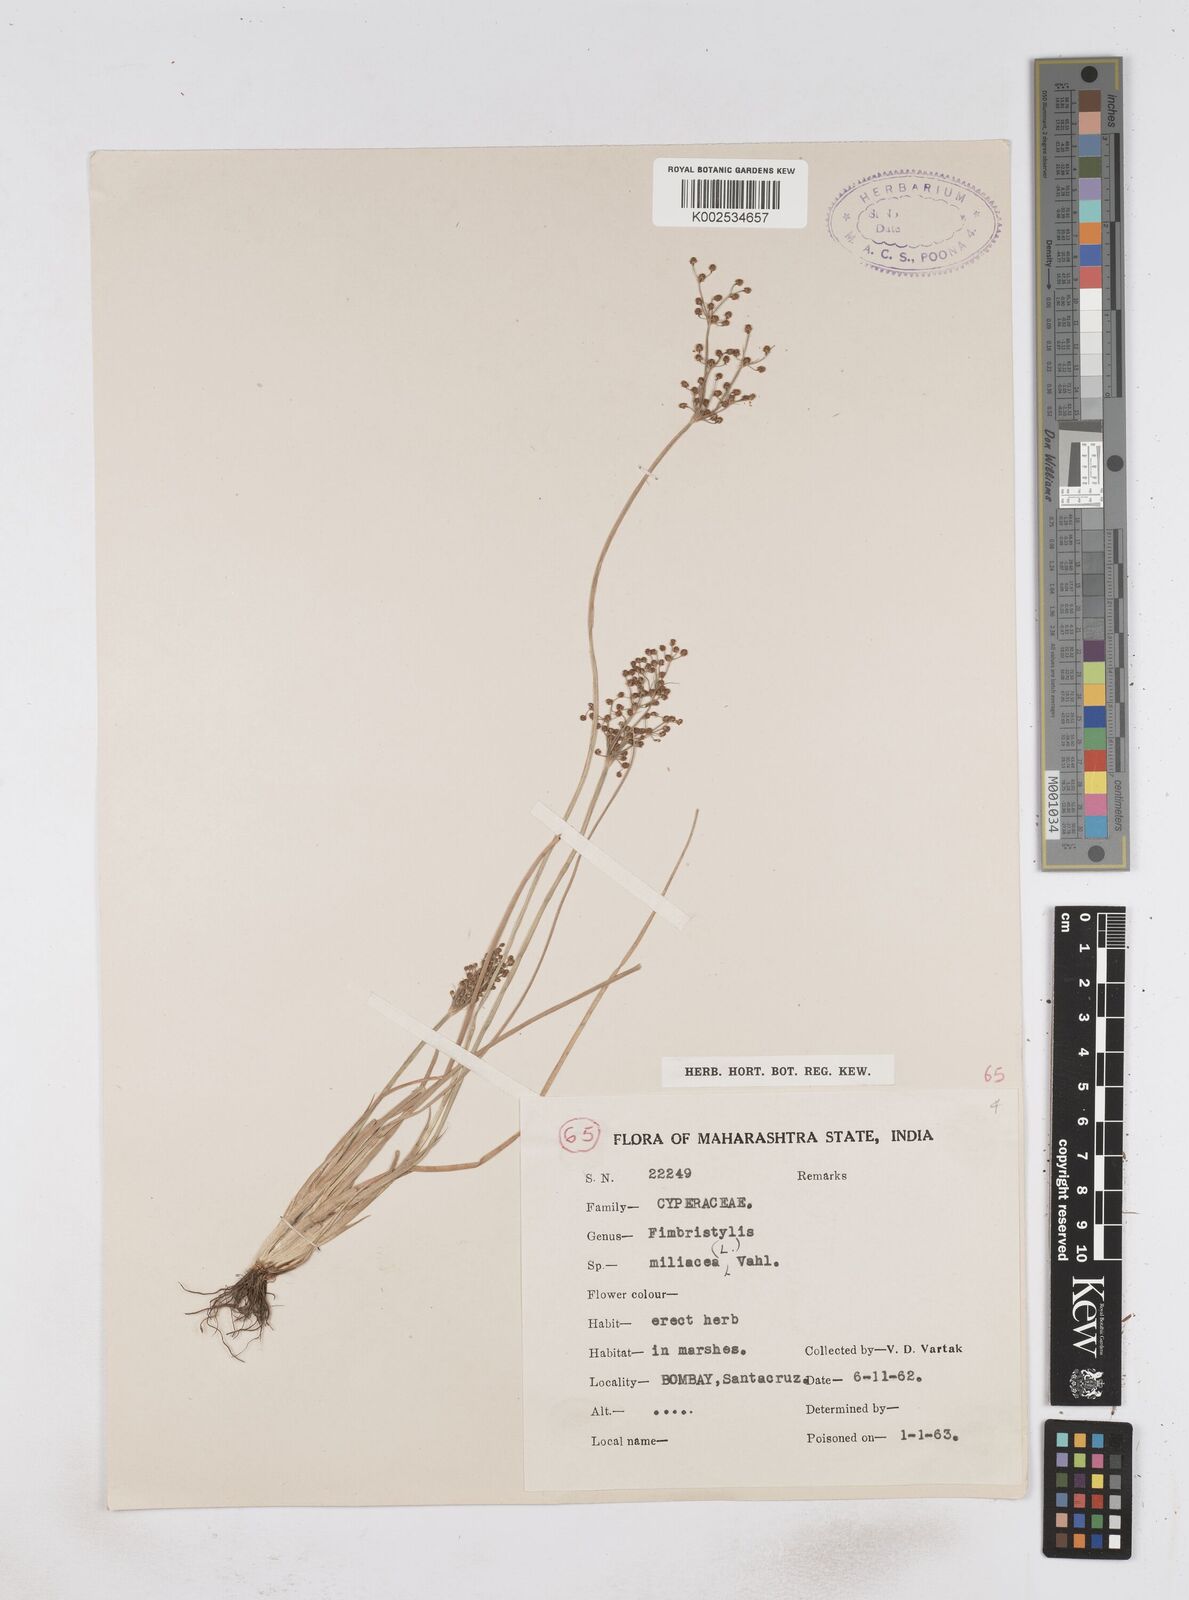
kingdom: Plantae
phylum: Tracheophyta
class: Liliopsida
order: Poales
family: Cyperaceae
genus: Fimbristylis
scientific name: Fimbristylis littoralis
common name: Fimbry
